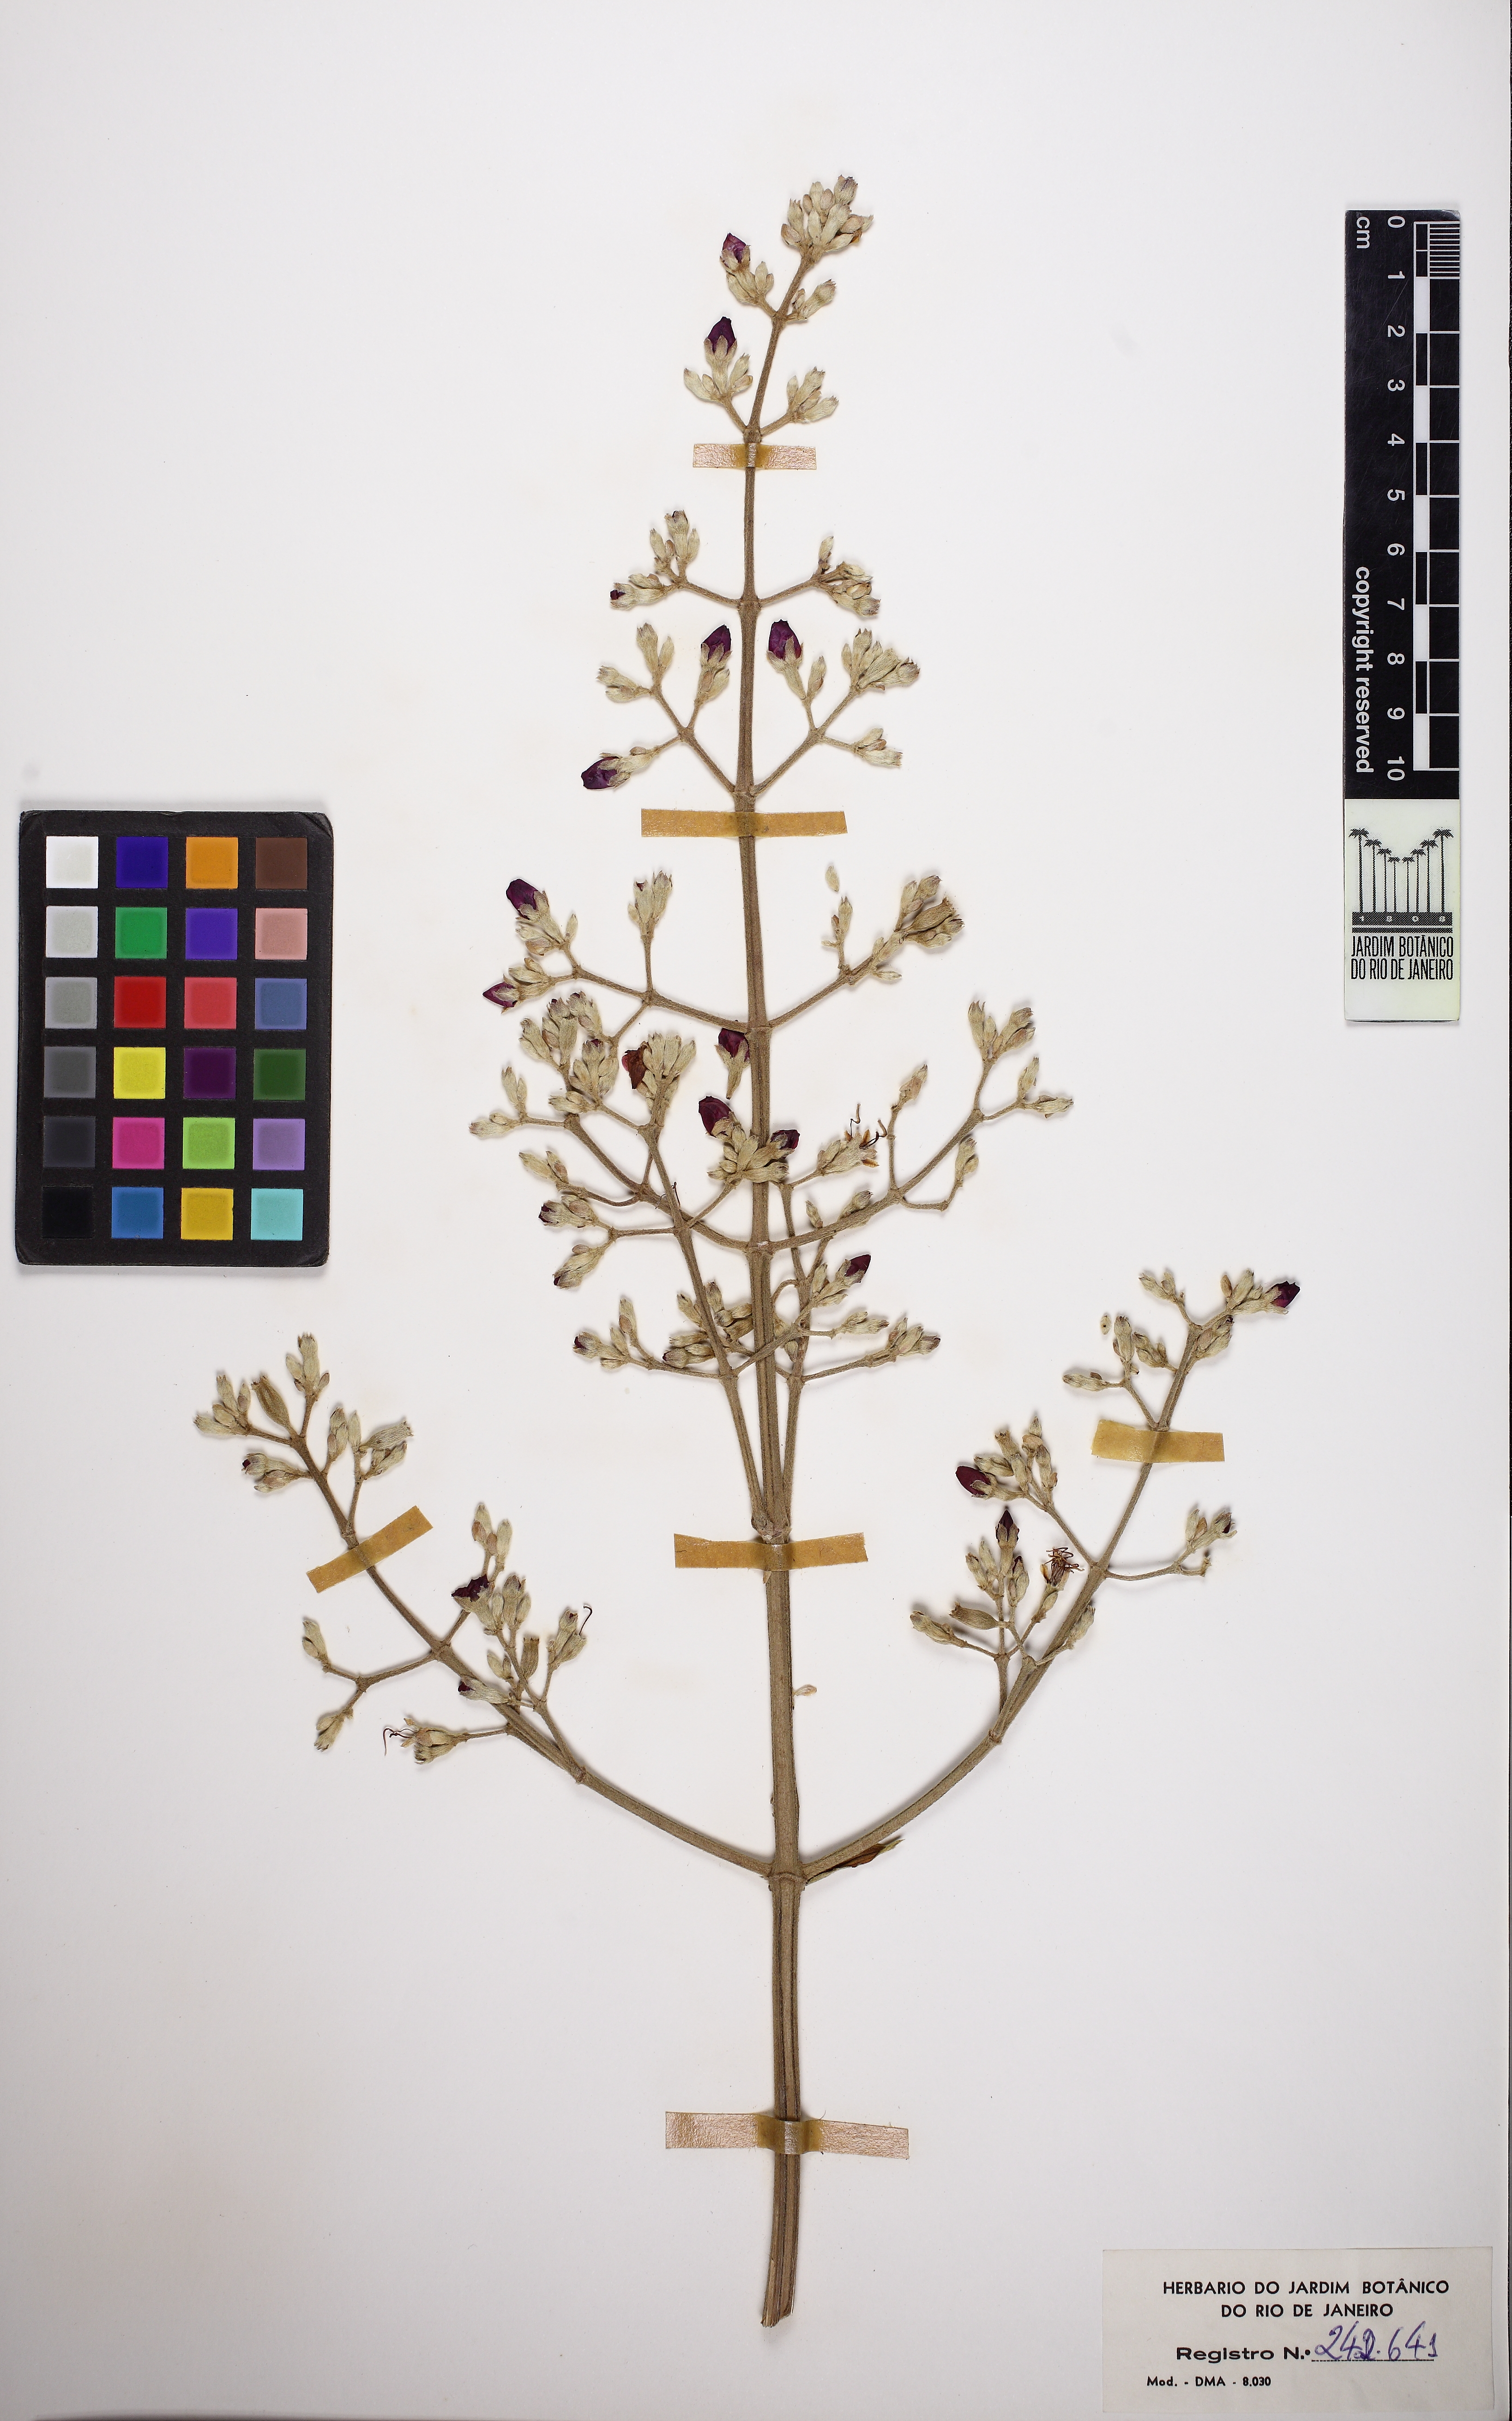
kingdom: Plantae
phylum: Tracheophyta
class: Magnoliopsida
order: Myrtales
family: Melastomataceae
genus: Pleroma
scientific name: Pleroma heteromallum
